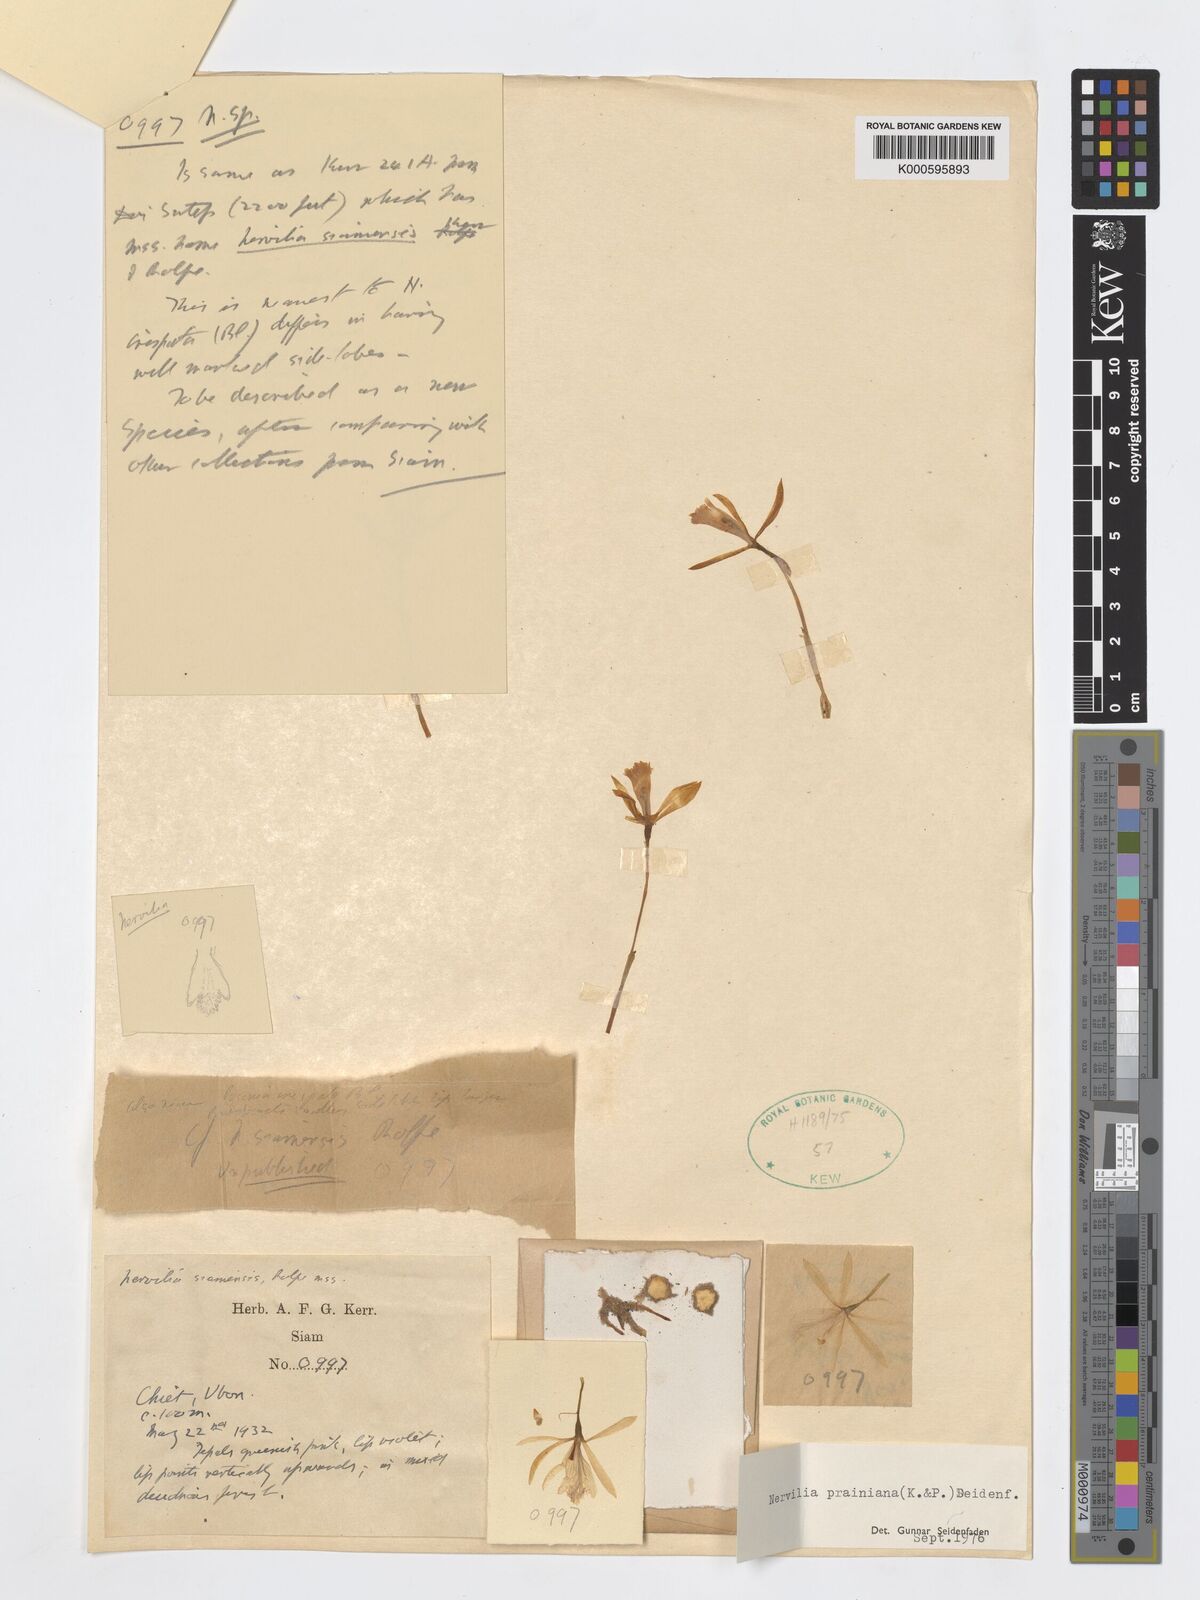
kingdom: Plantae
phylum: Tracheophyta
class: Liliopsida
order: Asparagales
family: Orchidaceae
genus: Nervilia
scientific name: Nervilia simplex
